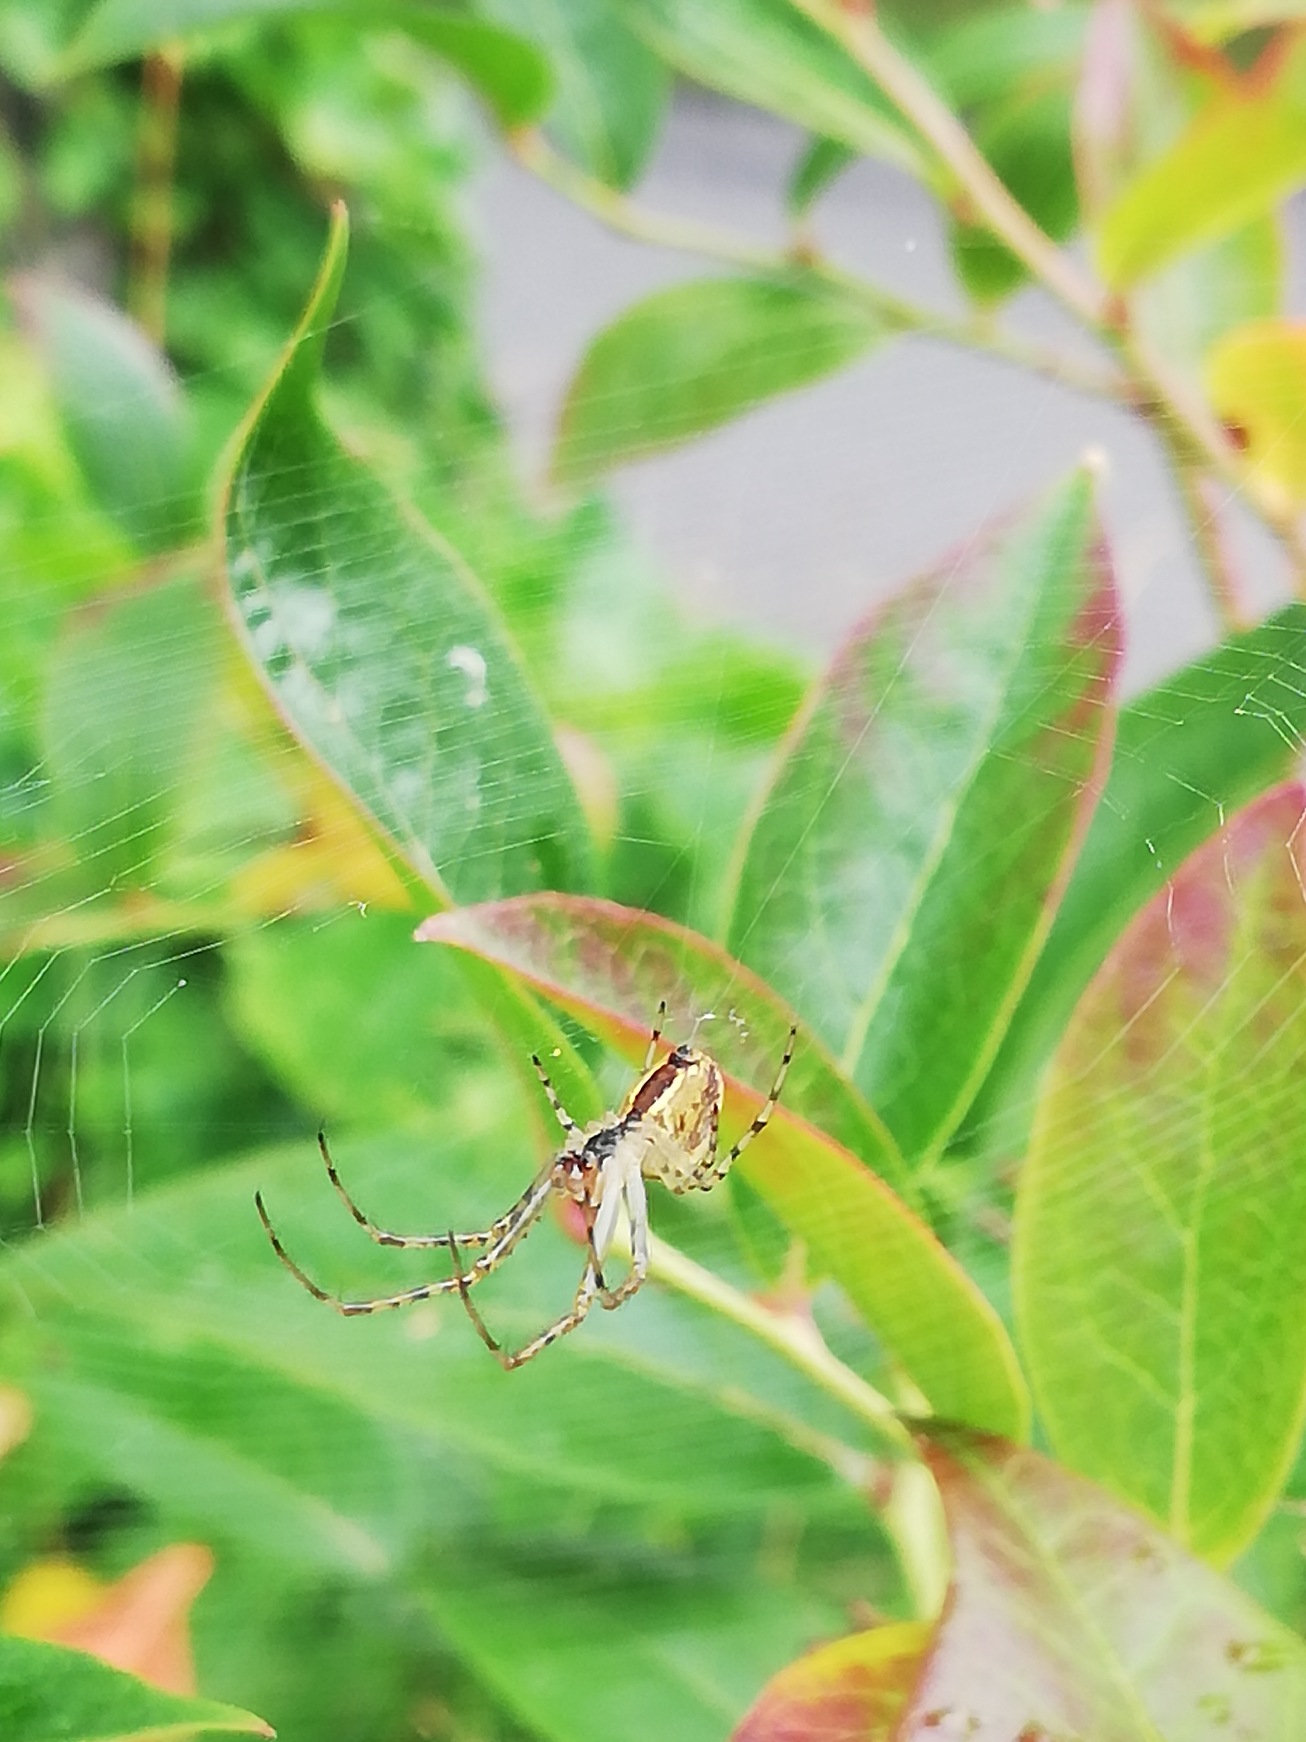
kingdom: Animalia
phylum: Arthropoda
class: Arachnida
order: Araneae
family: Tetragnathidae
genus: Metellina
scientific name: Metellina
